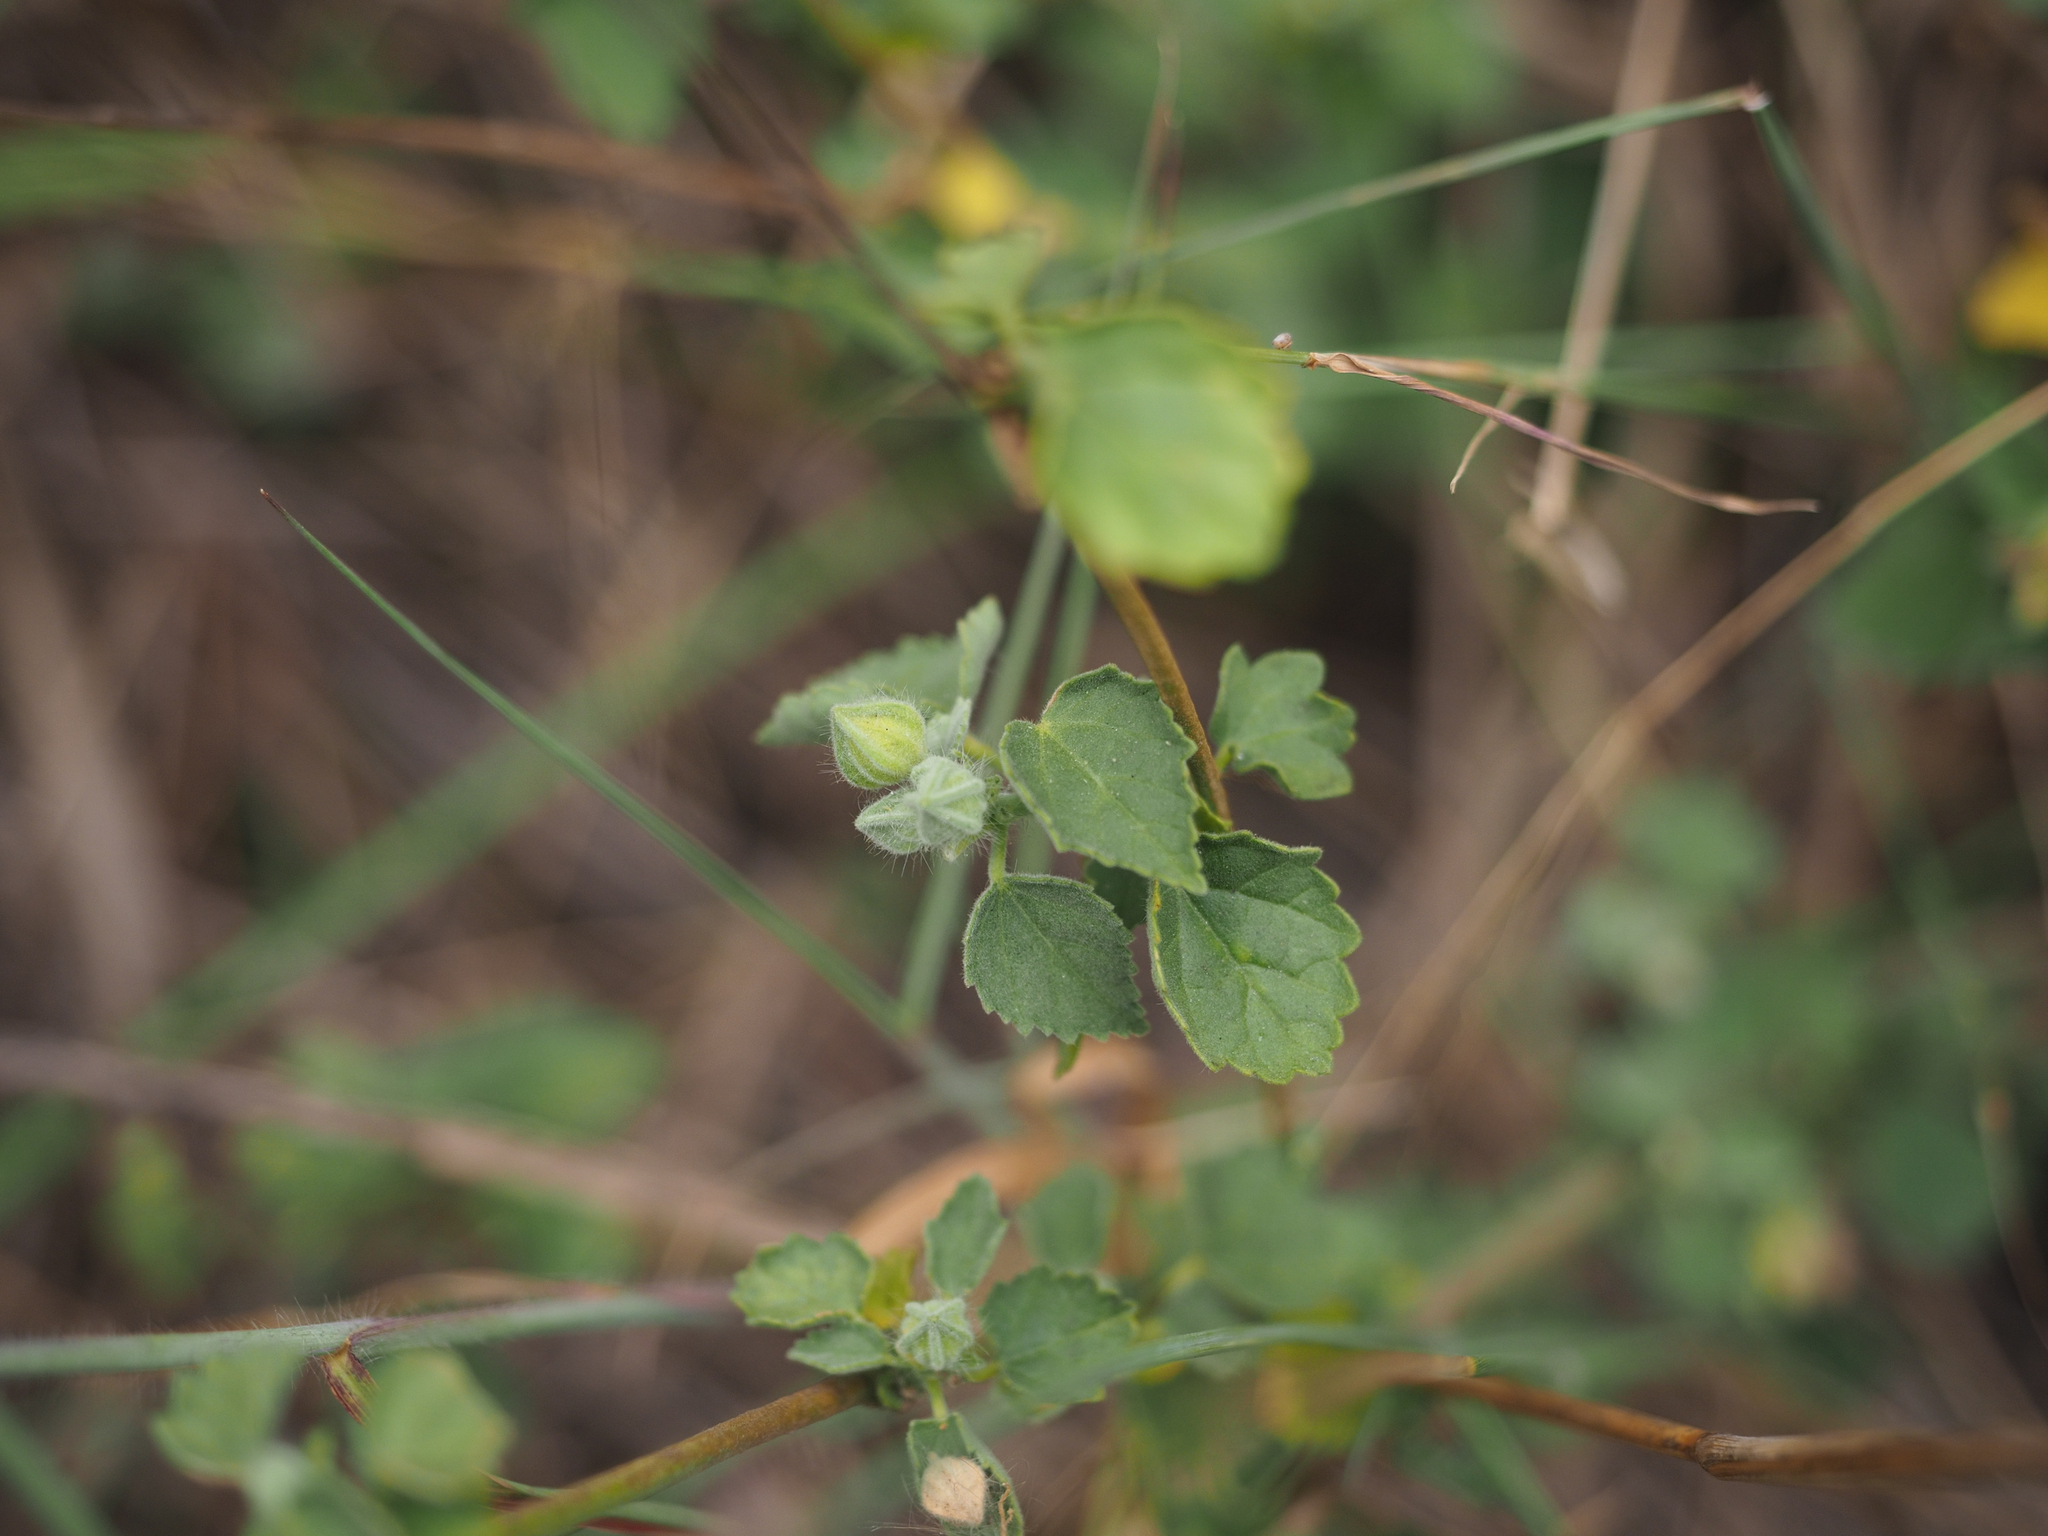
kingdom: Plantae
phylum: Tracheophyta
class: Magnoliopsida
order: Malvales
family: Malvaceae
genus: Sida
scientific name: Sida cordifolia
